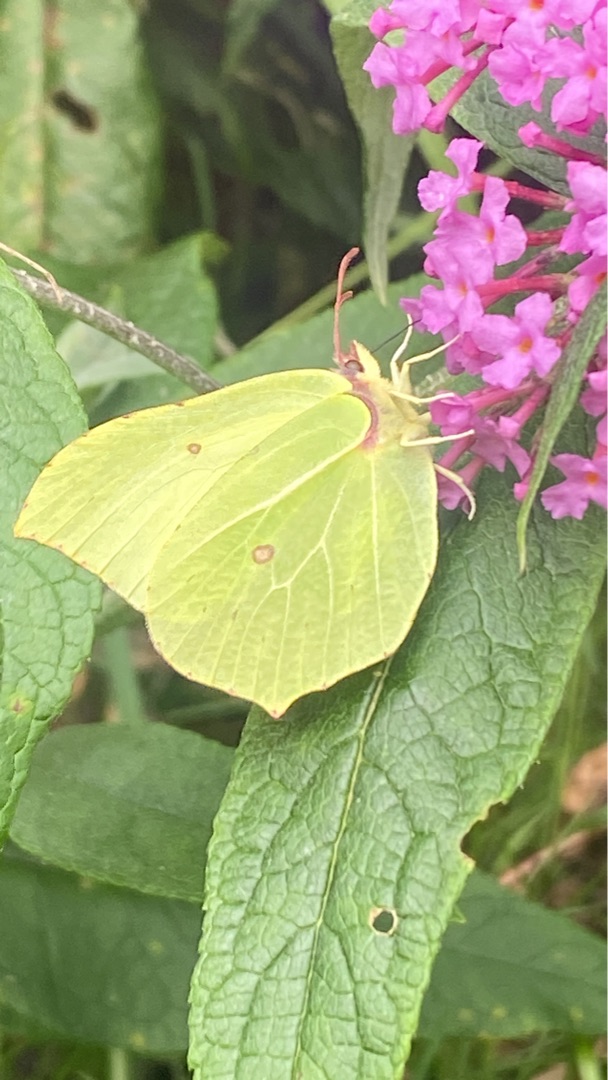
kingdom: Animalia
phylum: Arthropoda
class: Insecta
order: Lepidoptera
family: Pieridae
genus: Gonepteryx
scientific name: Gonepteryx rhamni
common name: Citronsommerfugl
